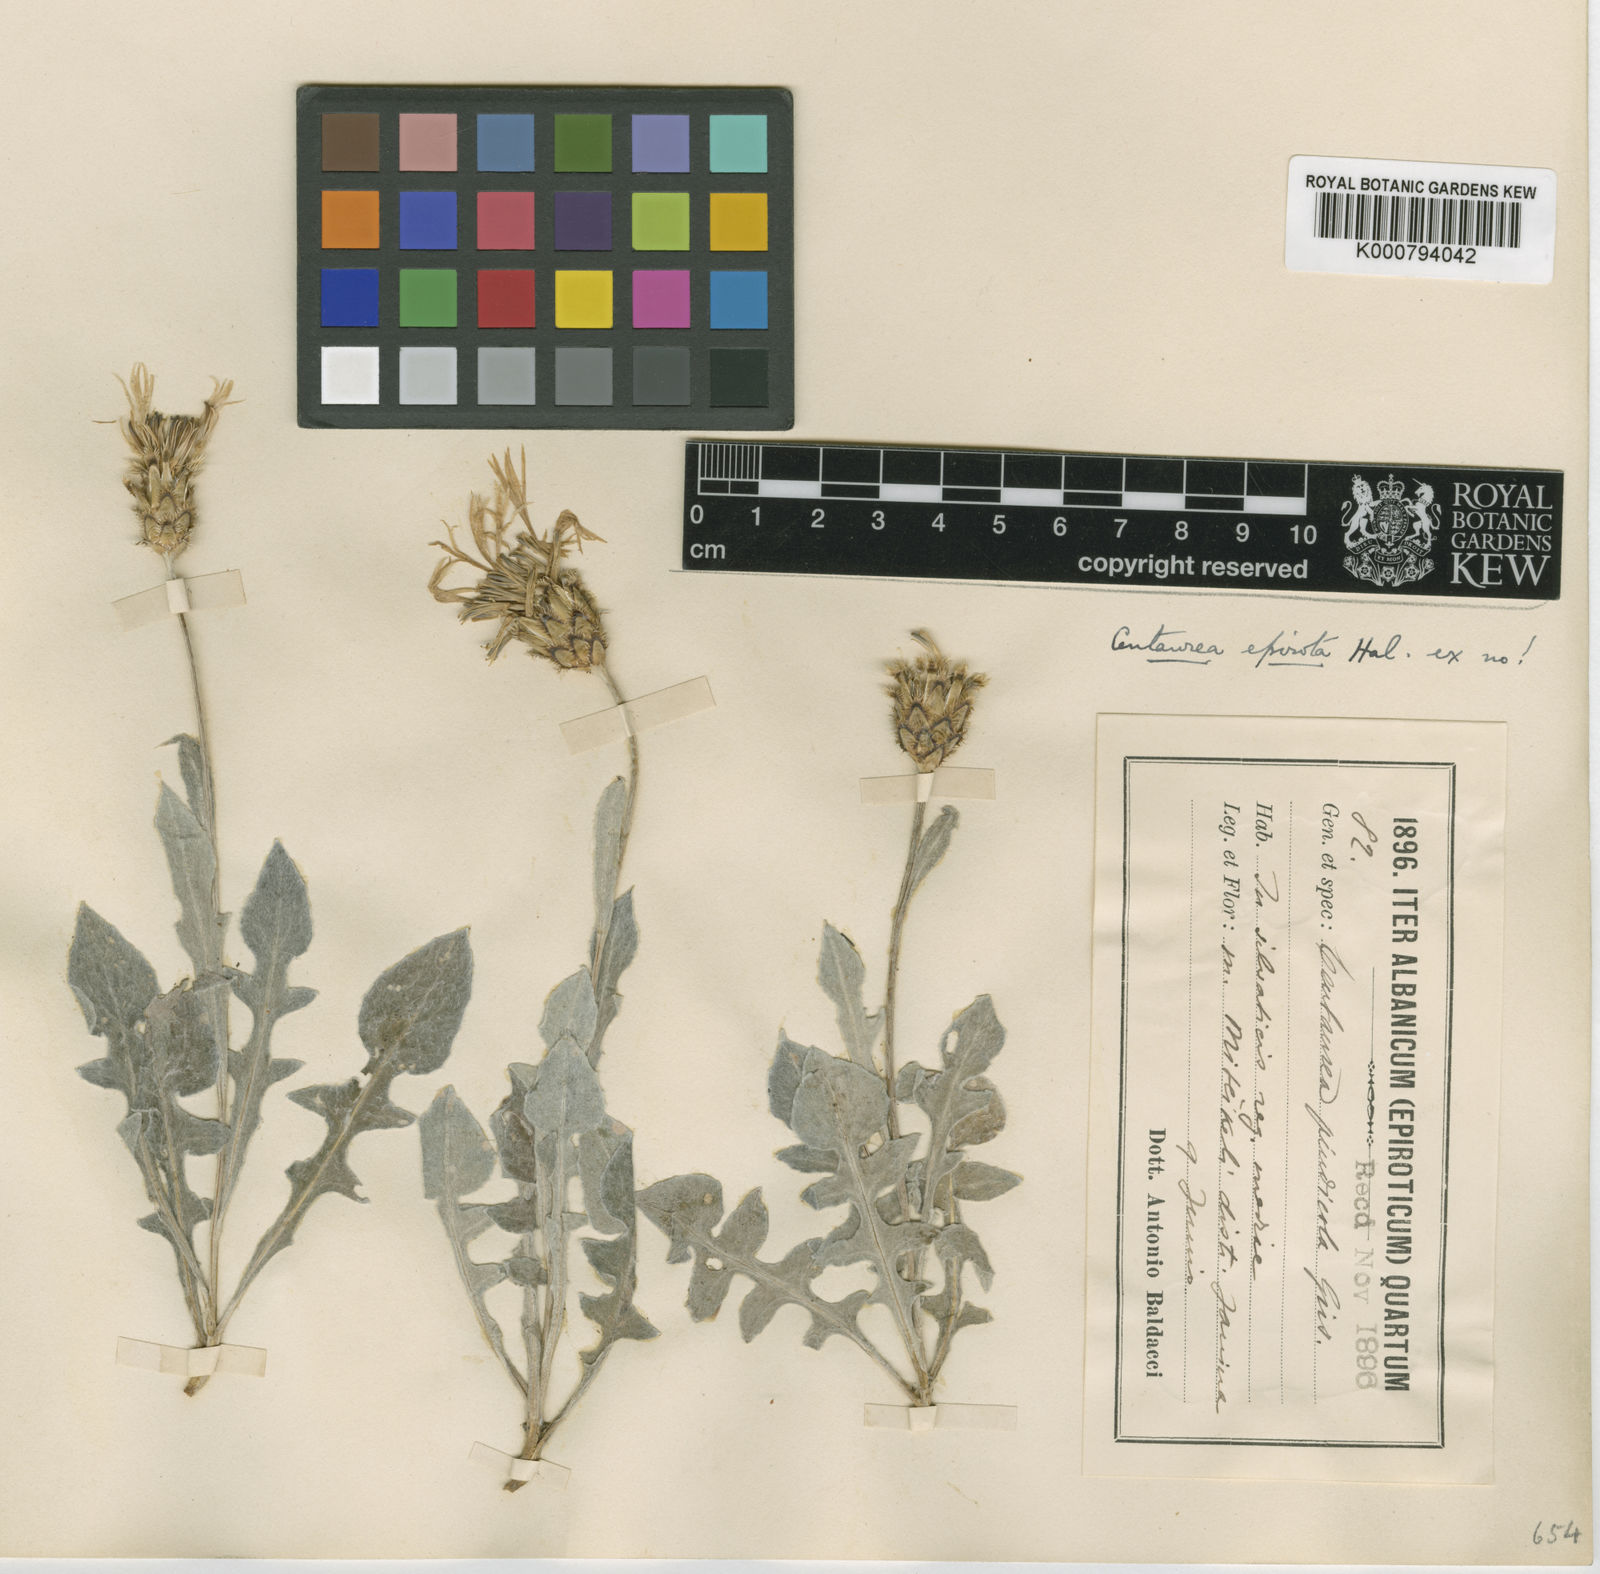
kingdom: Plantae
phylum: Tracheophyta
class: Magnoliopsida
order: Asterales
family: Asteraceae
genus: Centaurea
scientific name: Centaurea
